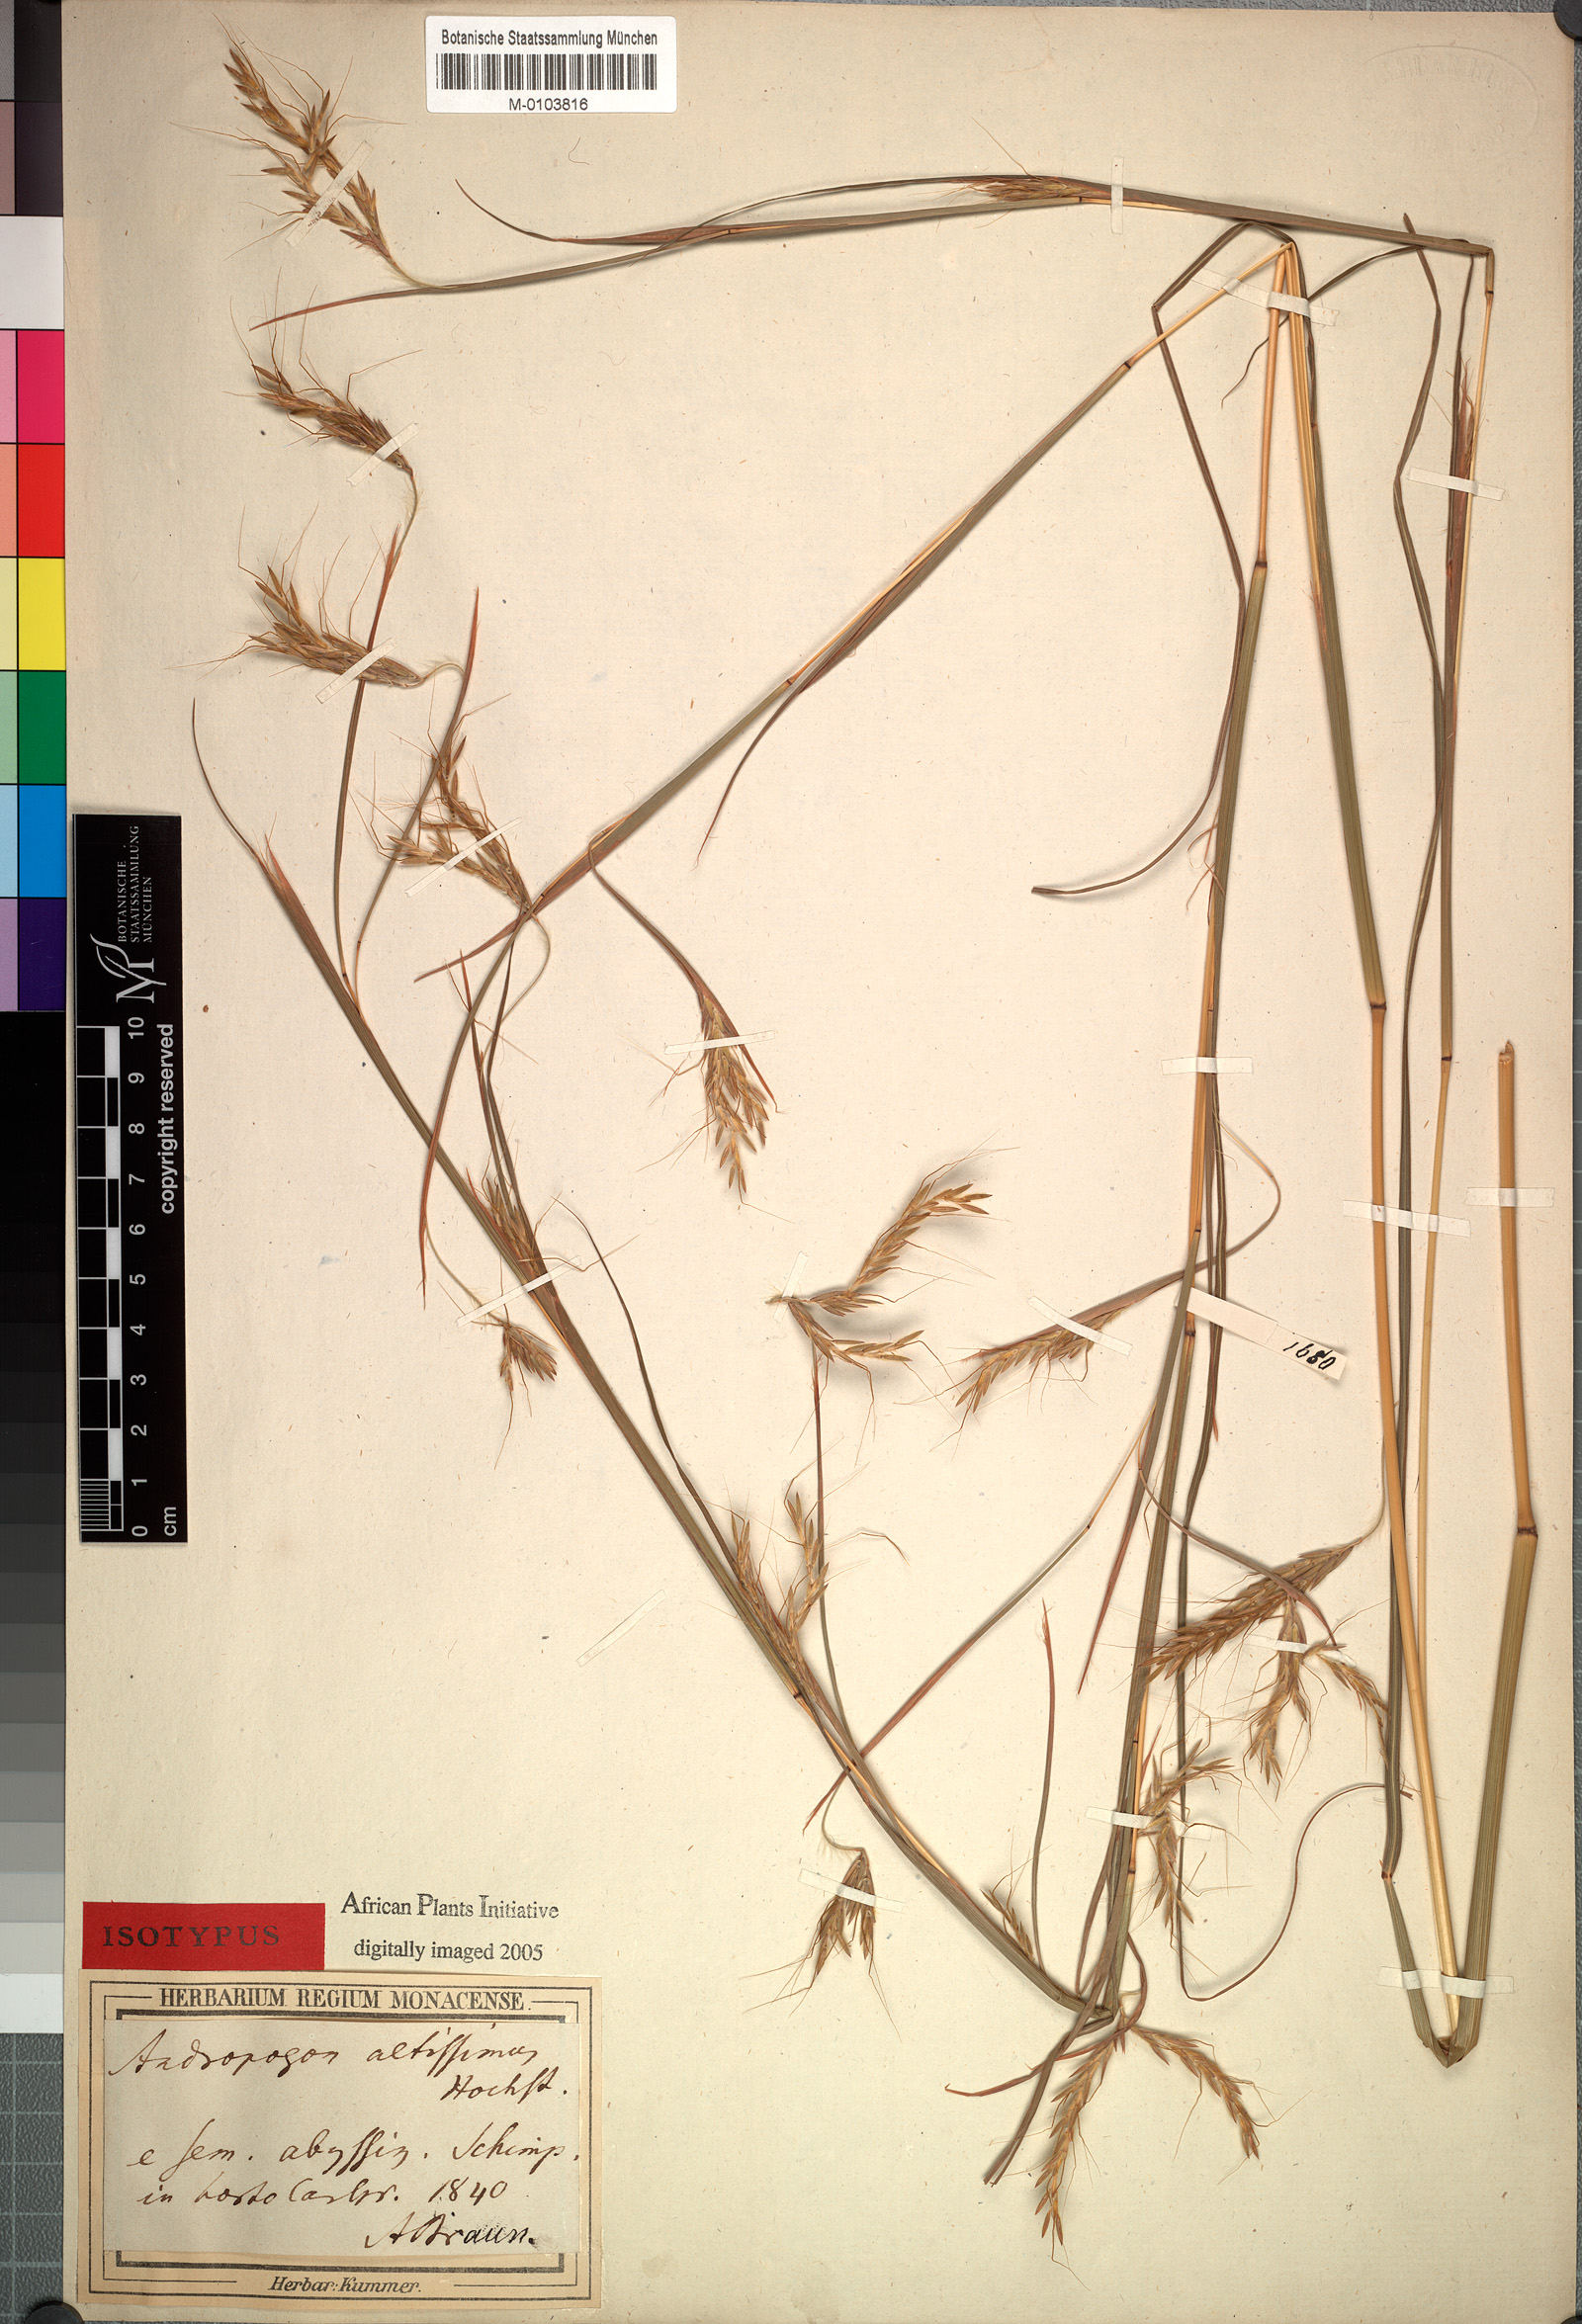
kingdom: Plantae
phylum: Tracheophyta
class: Liliopsida
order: Poales
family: Poaceae
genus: Hyparrhenia
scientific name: Hyparrhenia rufa
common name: Jaraguagrass
